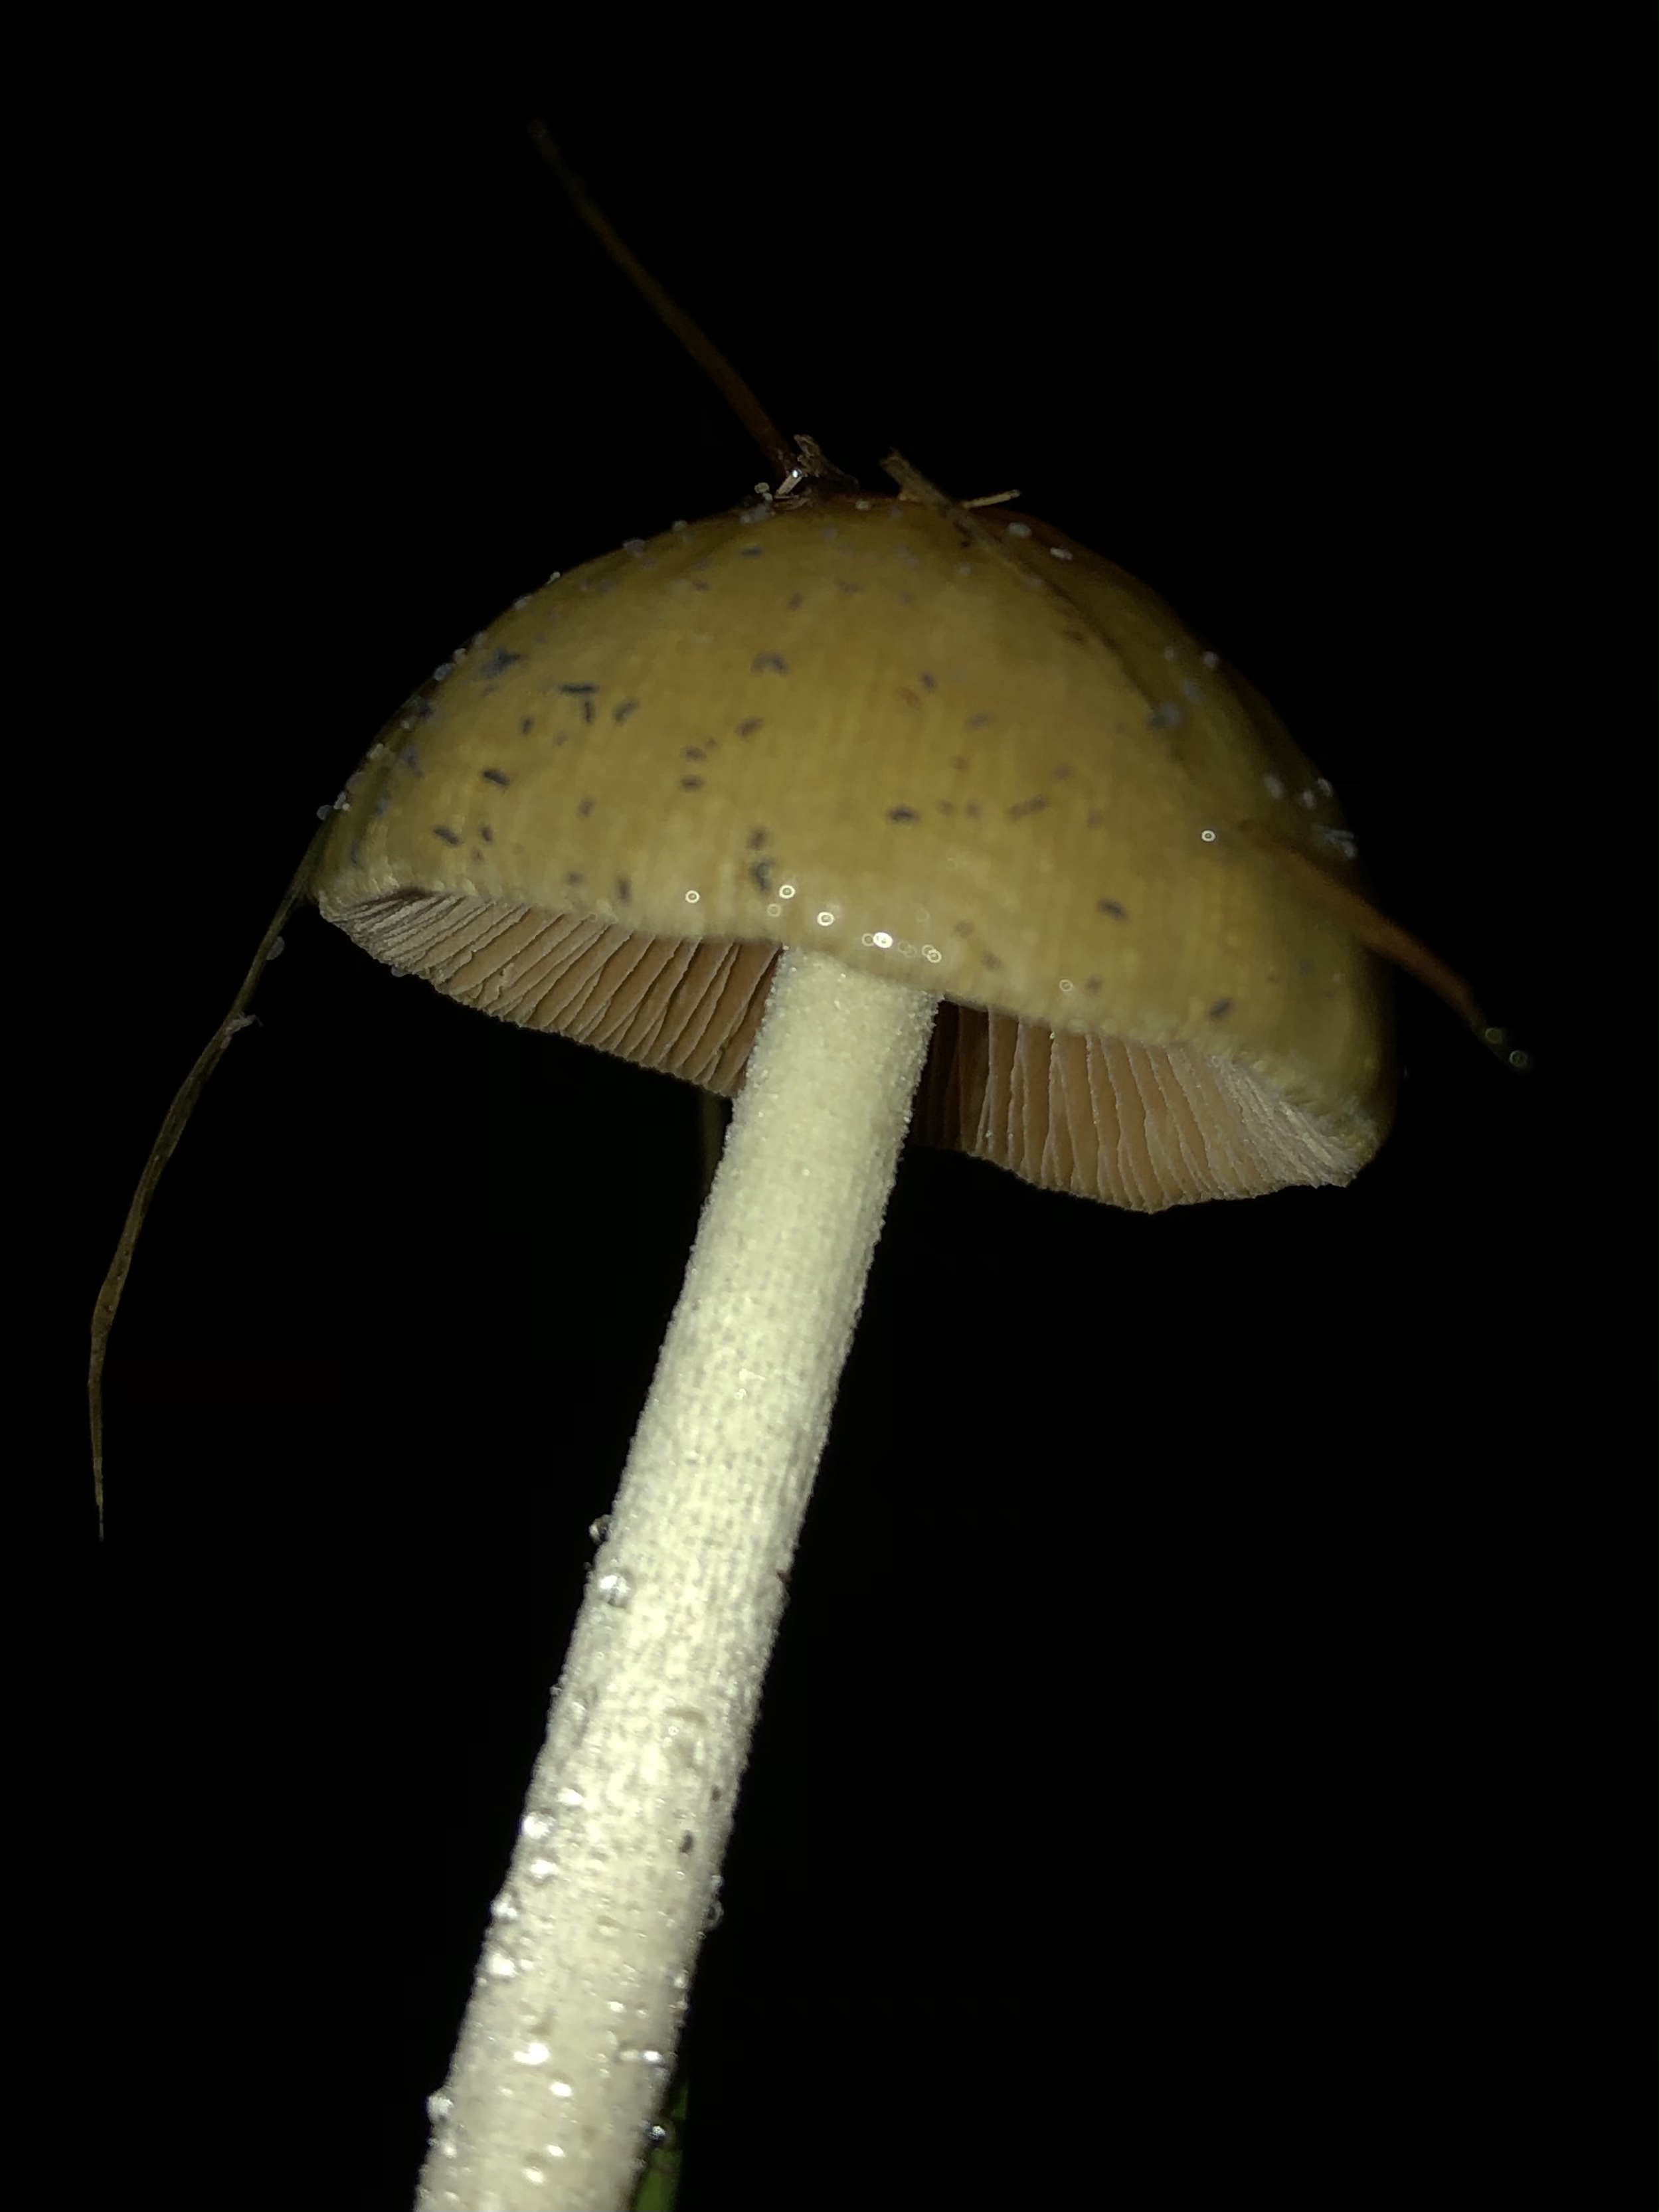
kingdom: Fungi
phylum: Basidiomycota
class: Agaricomycetes
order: Agaricales
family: Bolbitiaceae
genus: Bolbitius
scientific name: Bolbitius titubans
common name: almindelig gulhat
